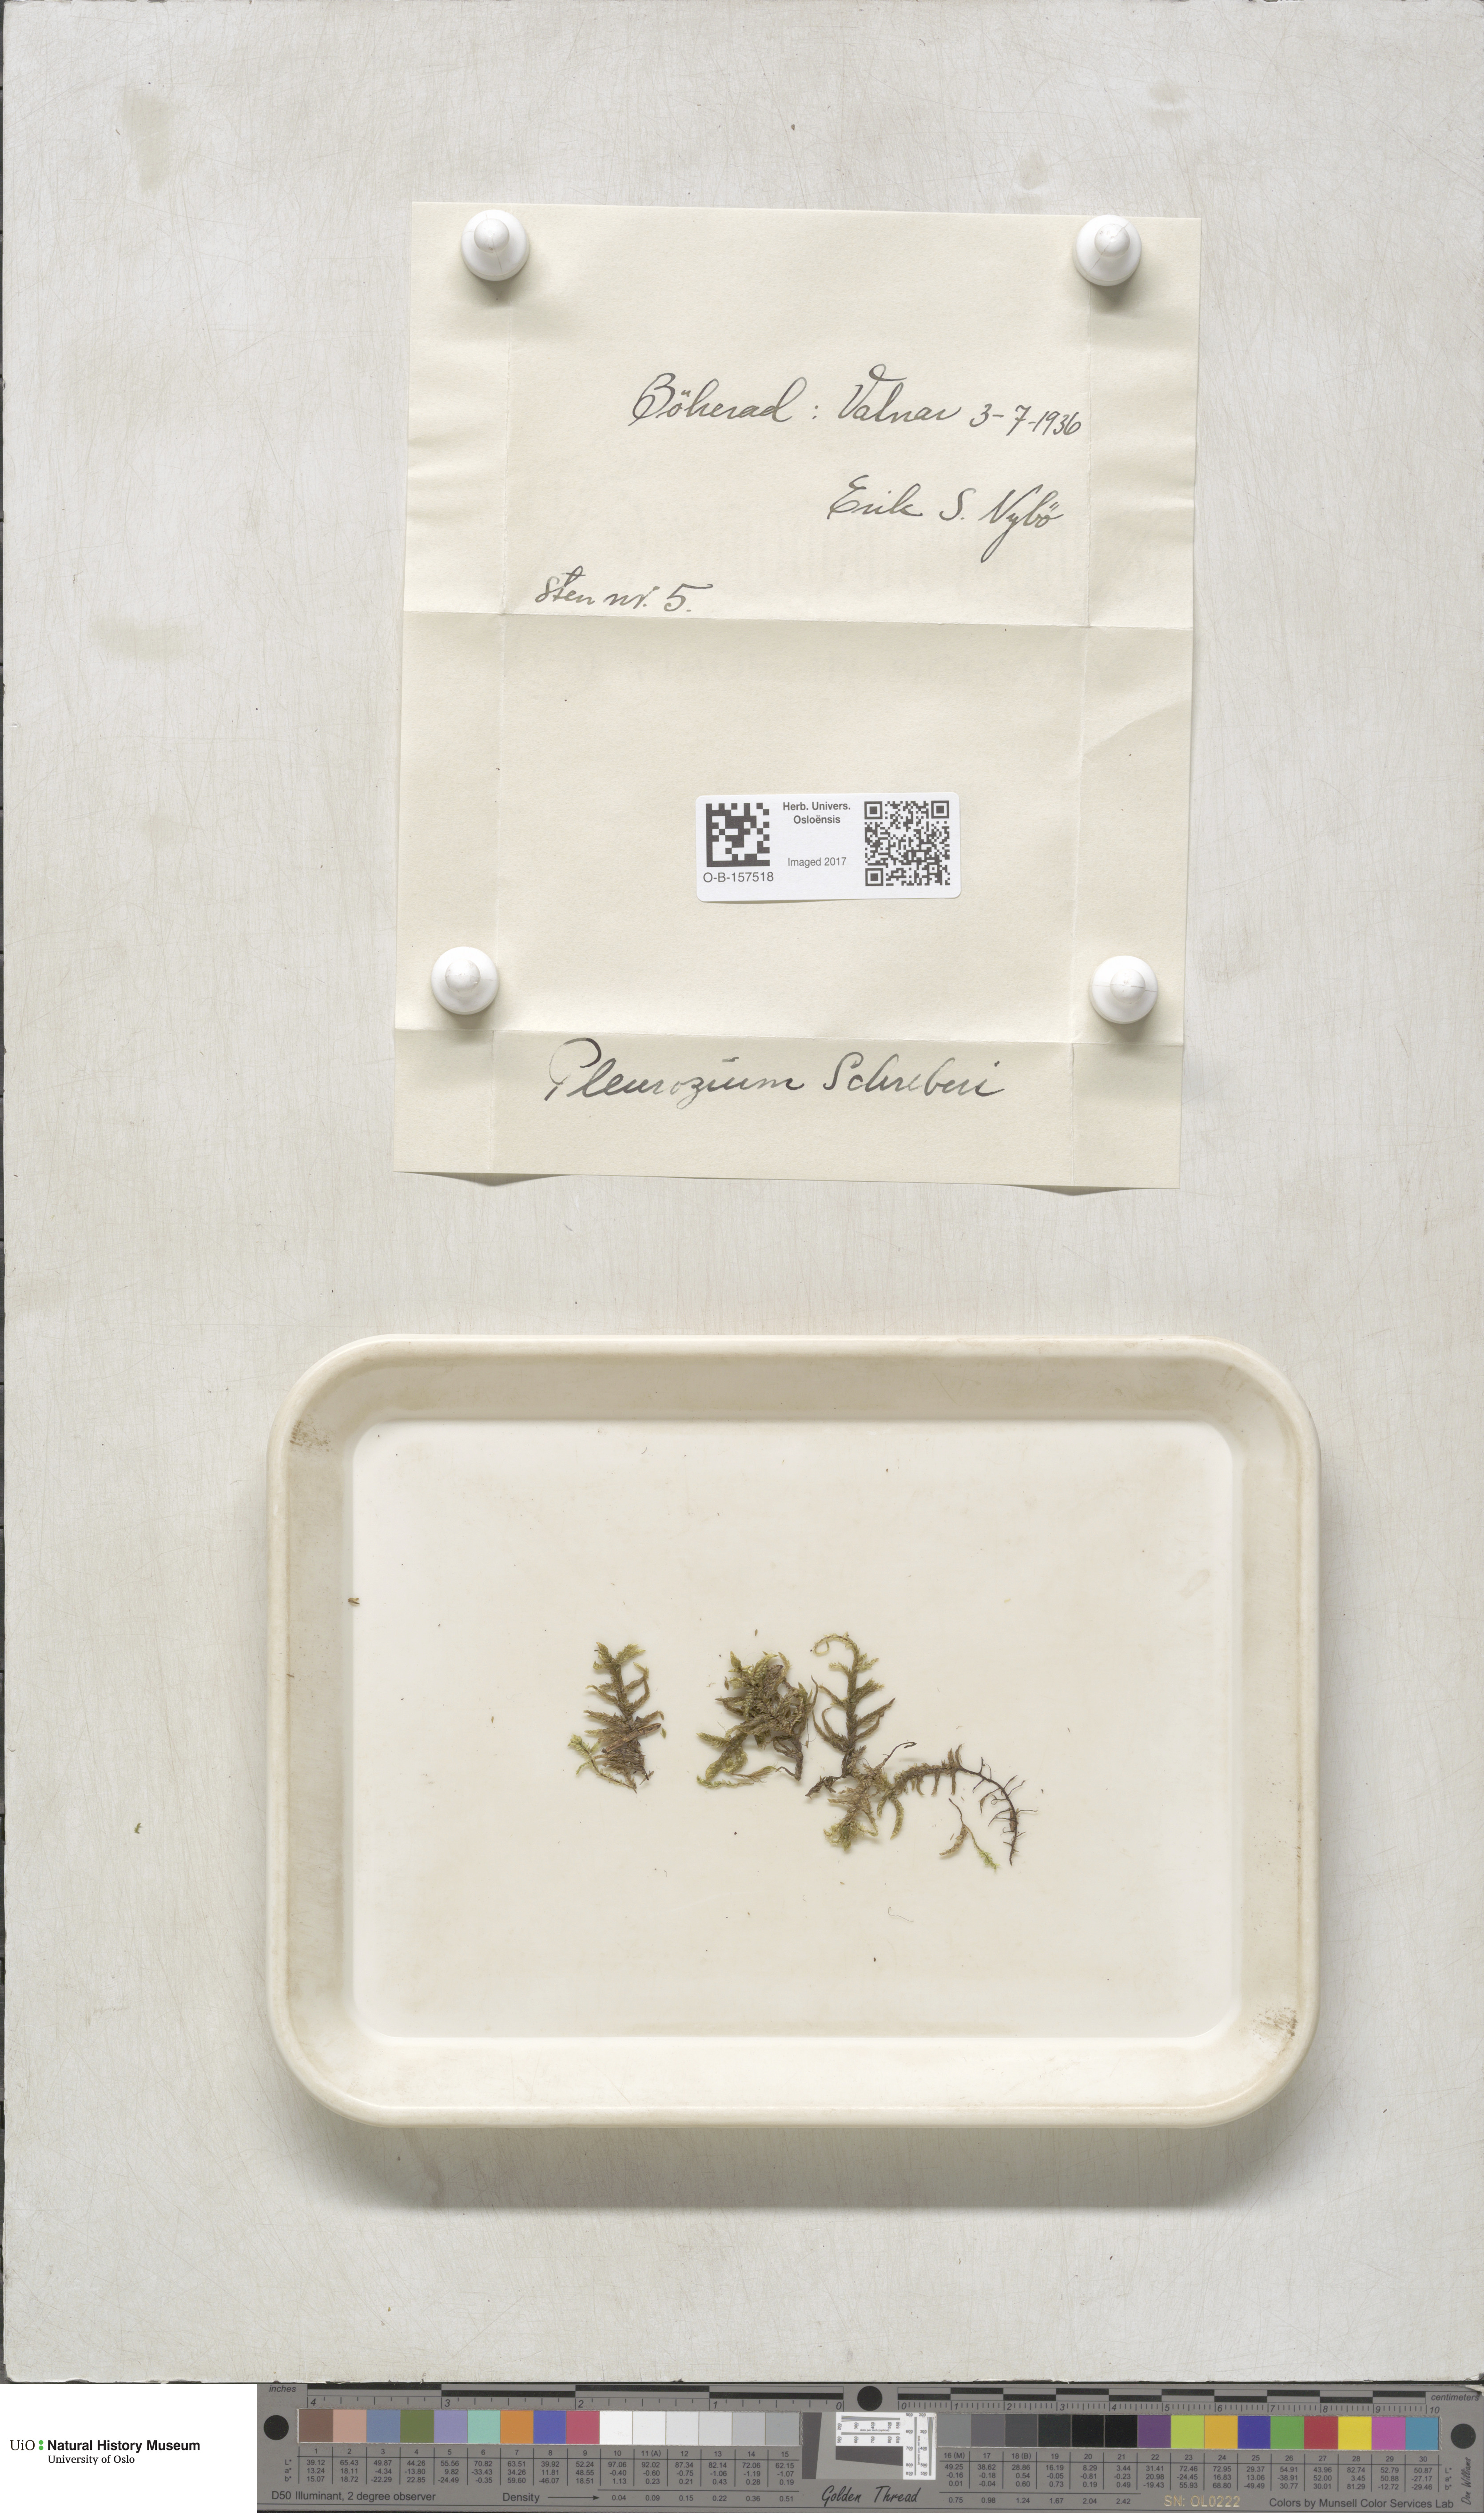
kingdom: Plantae
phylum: Bryophyta
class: Bryopsida
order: Hypnales
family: Hylocomiaceae
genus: Pleurozium
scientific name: Pleurozium schreberi
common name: Red-stemmed feather moss
